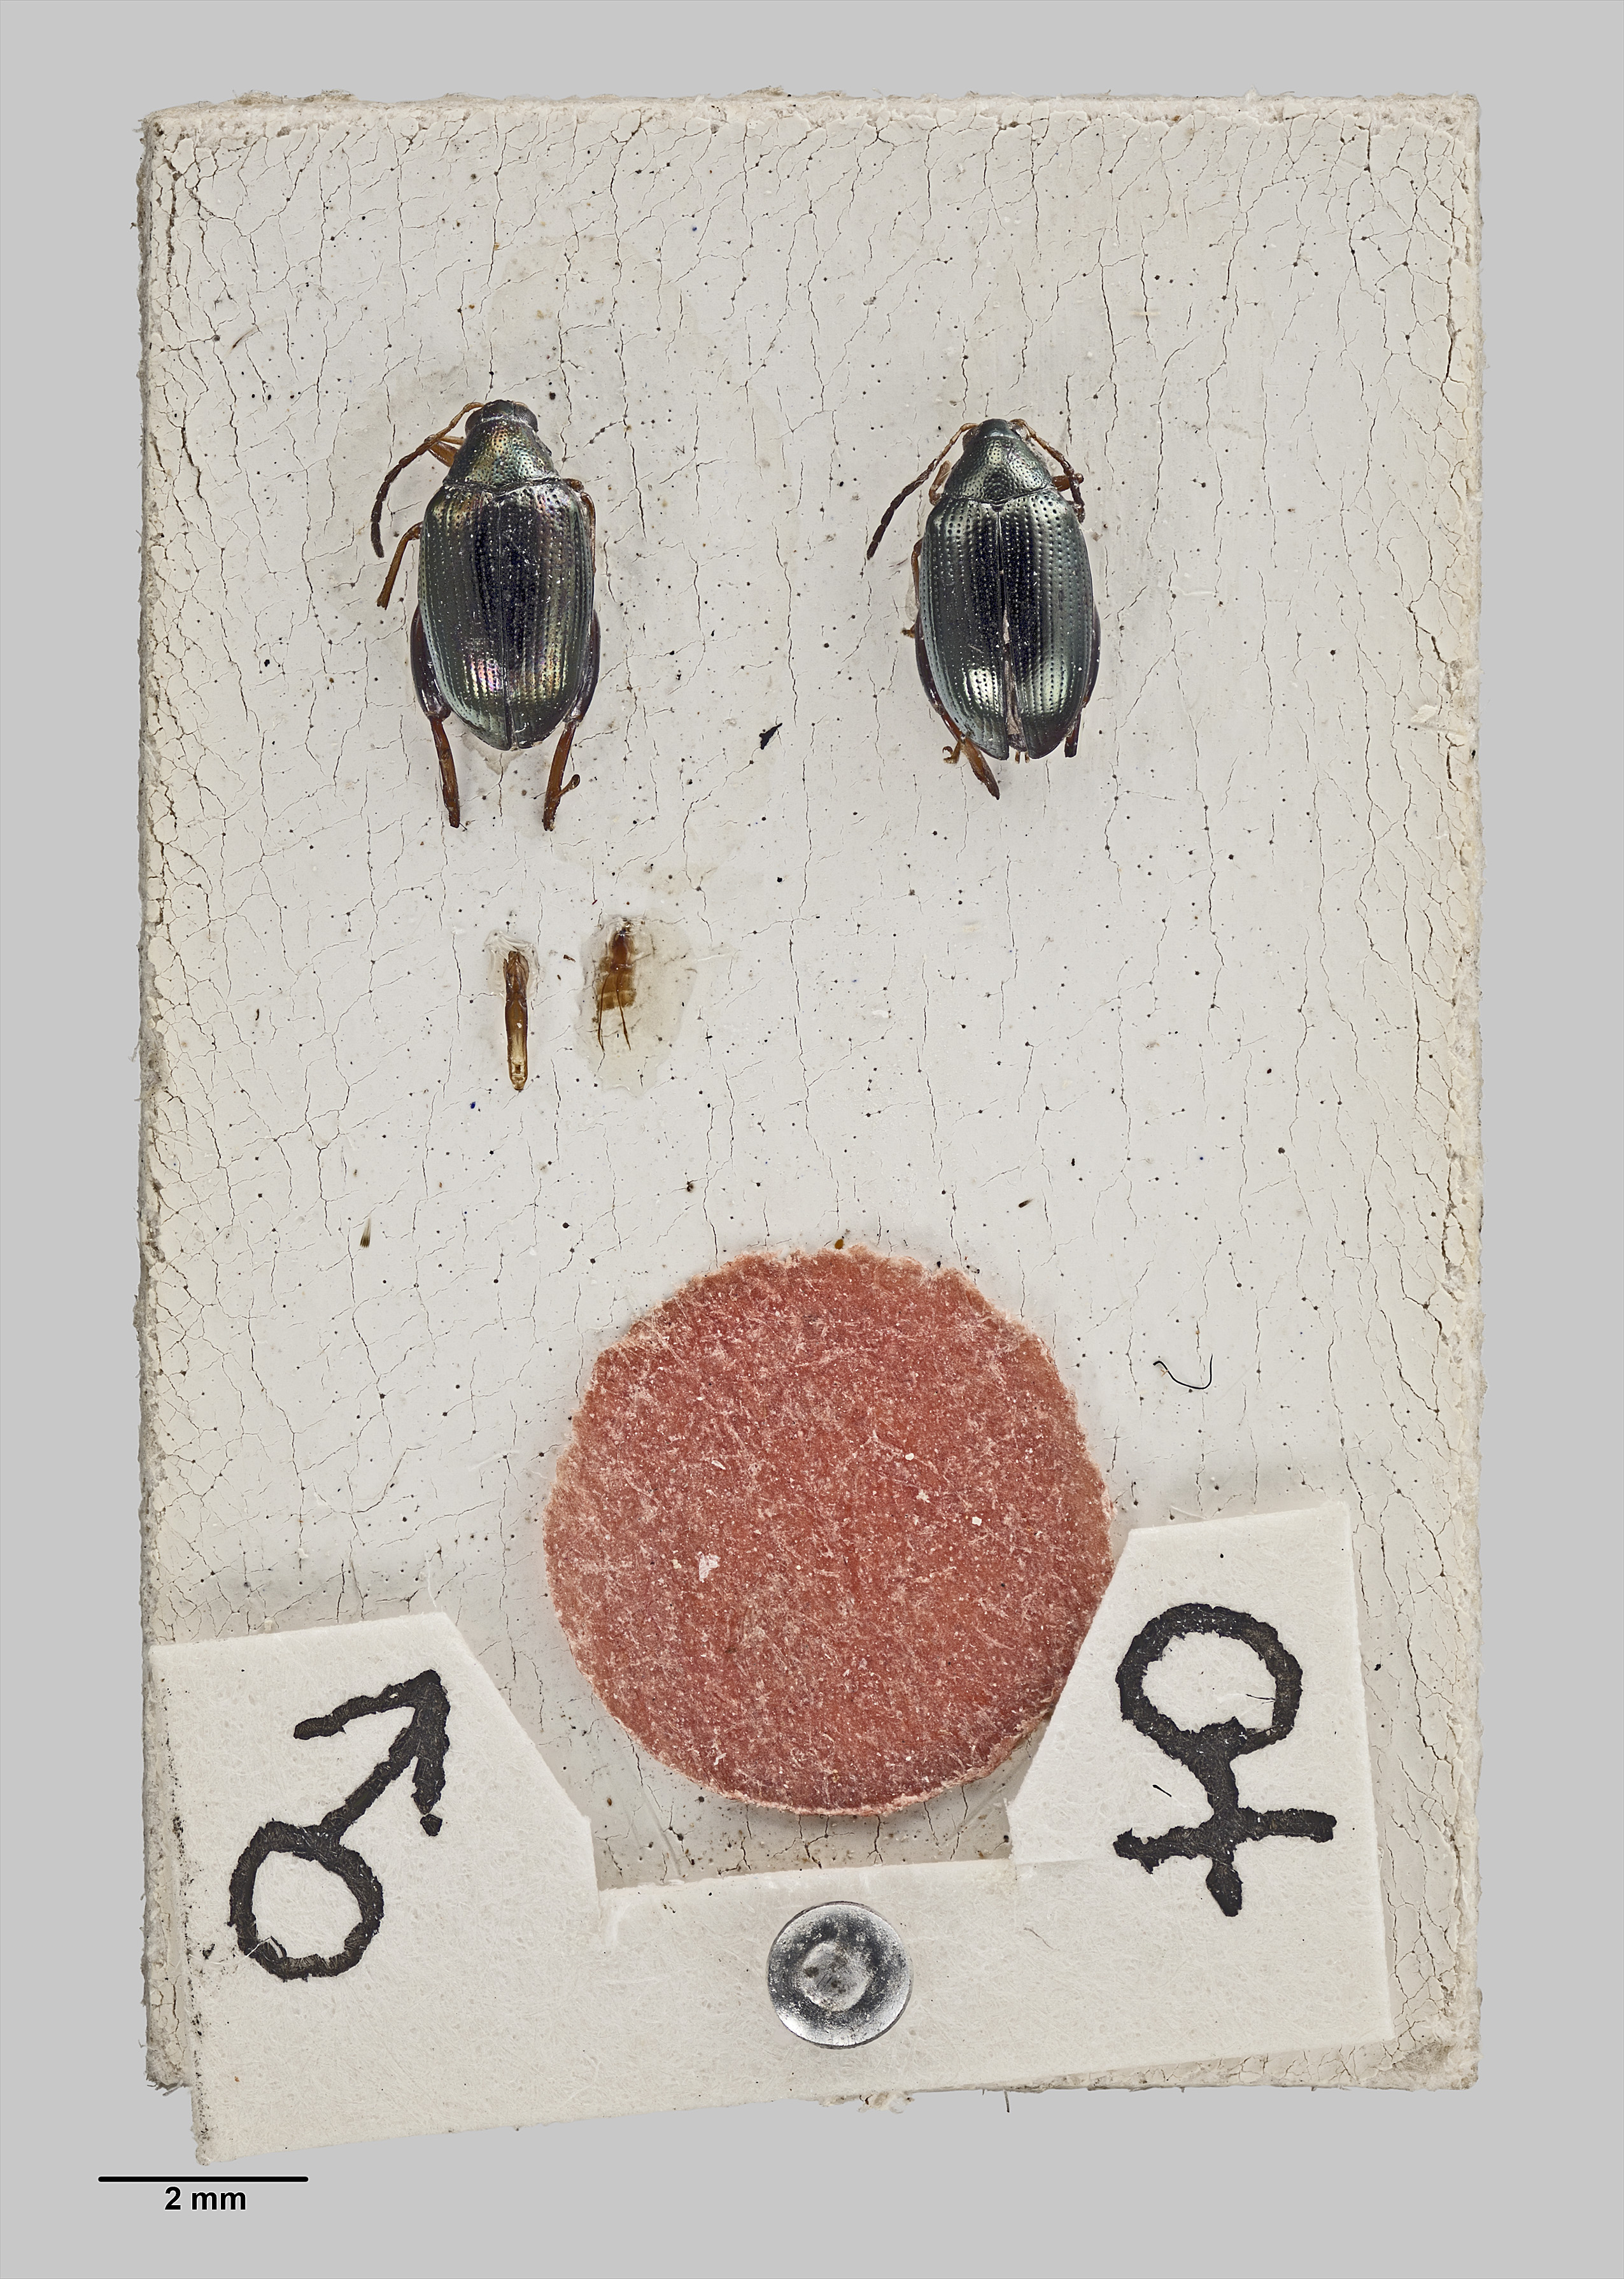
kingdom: Animalia
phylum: Arthropoda
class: Insecta
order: Coleoptera
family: Chrysomelidae
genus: Psylliodes
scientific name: Psylliodes brettinghami
